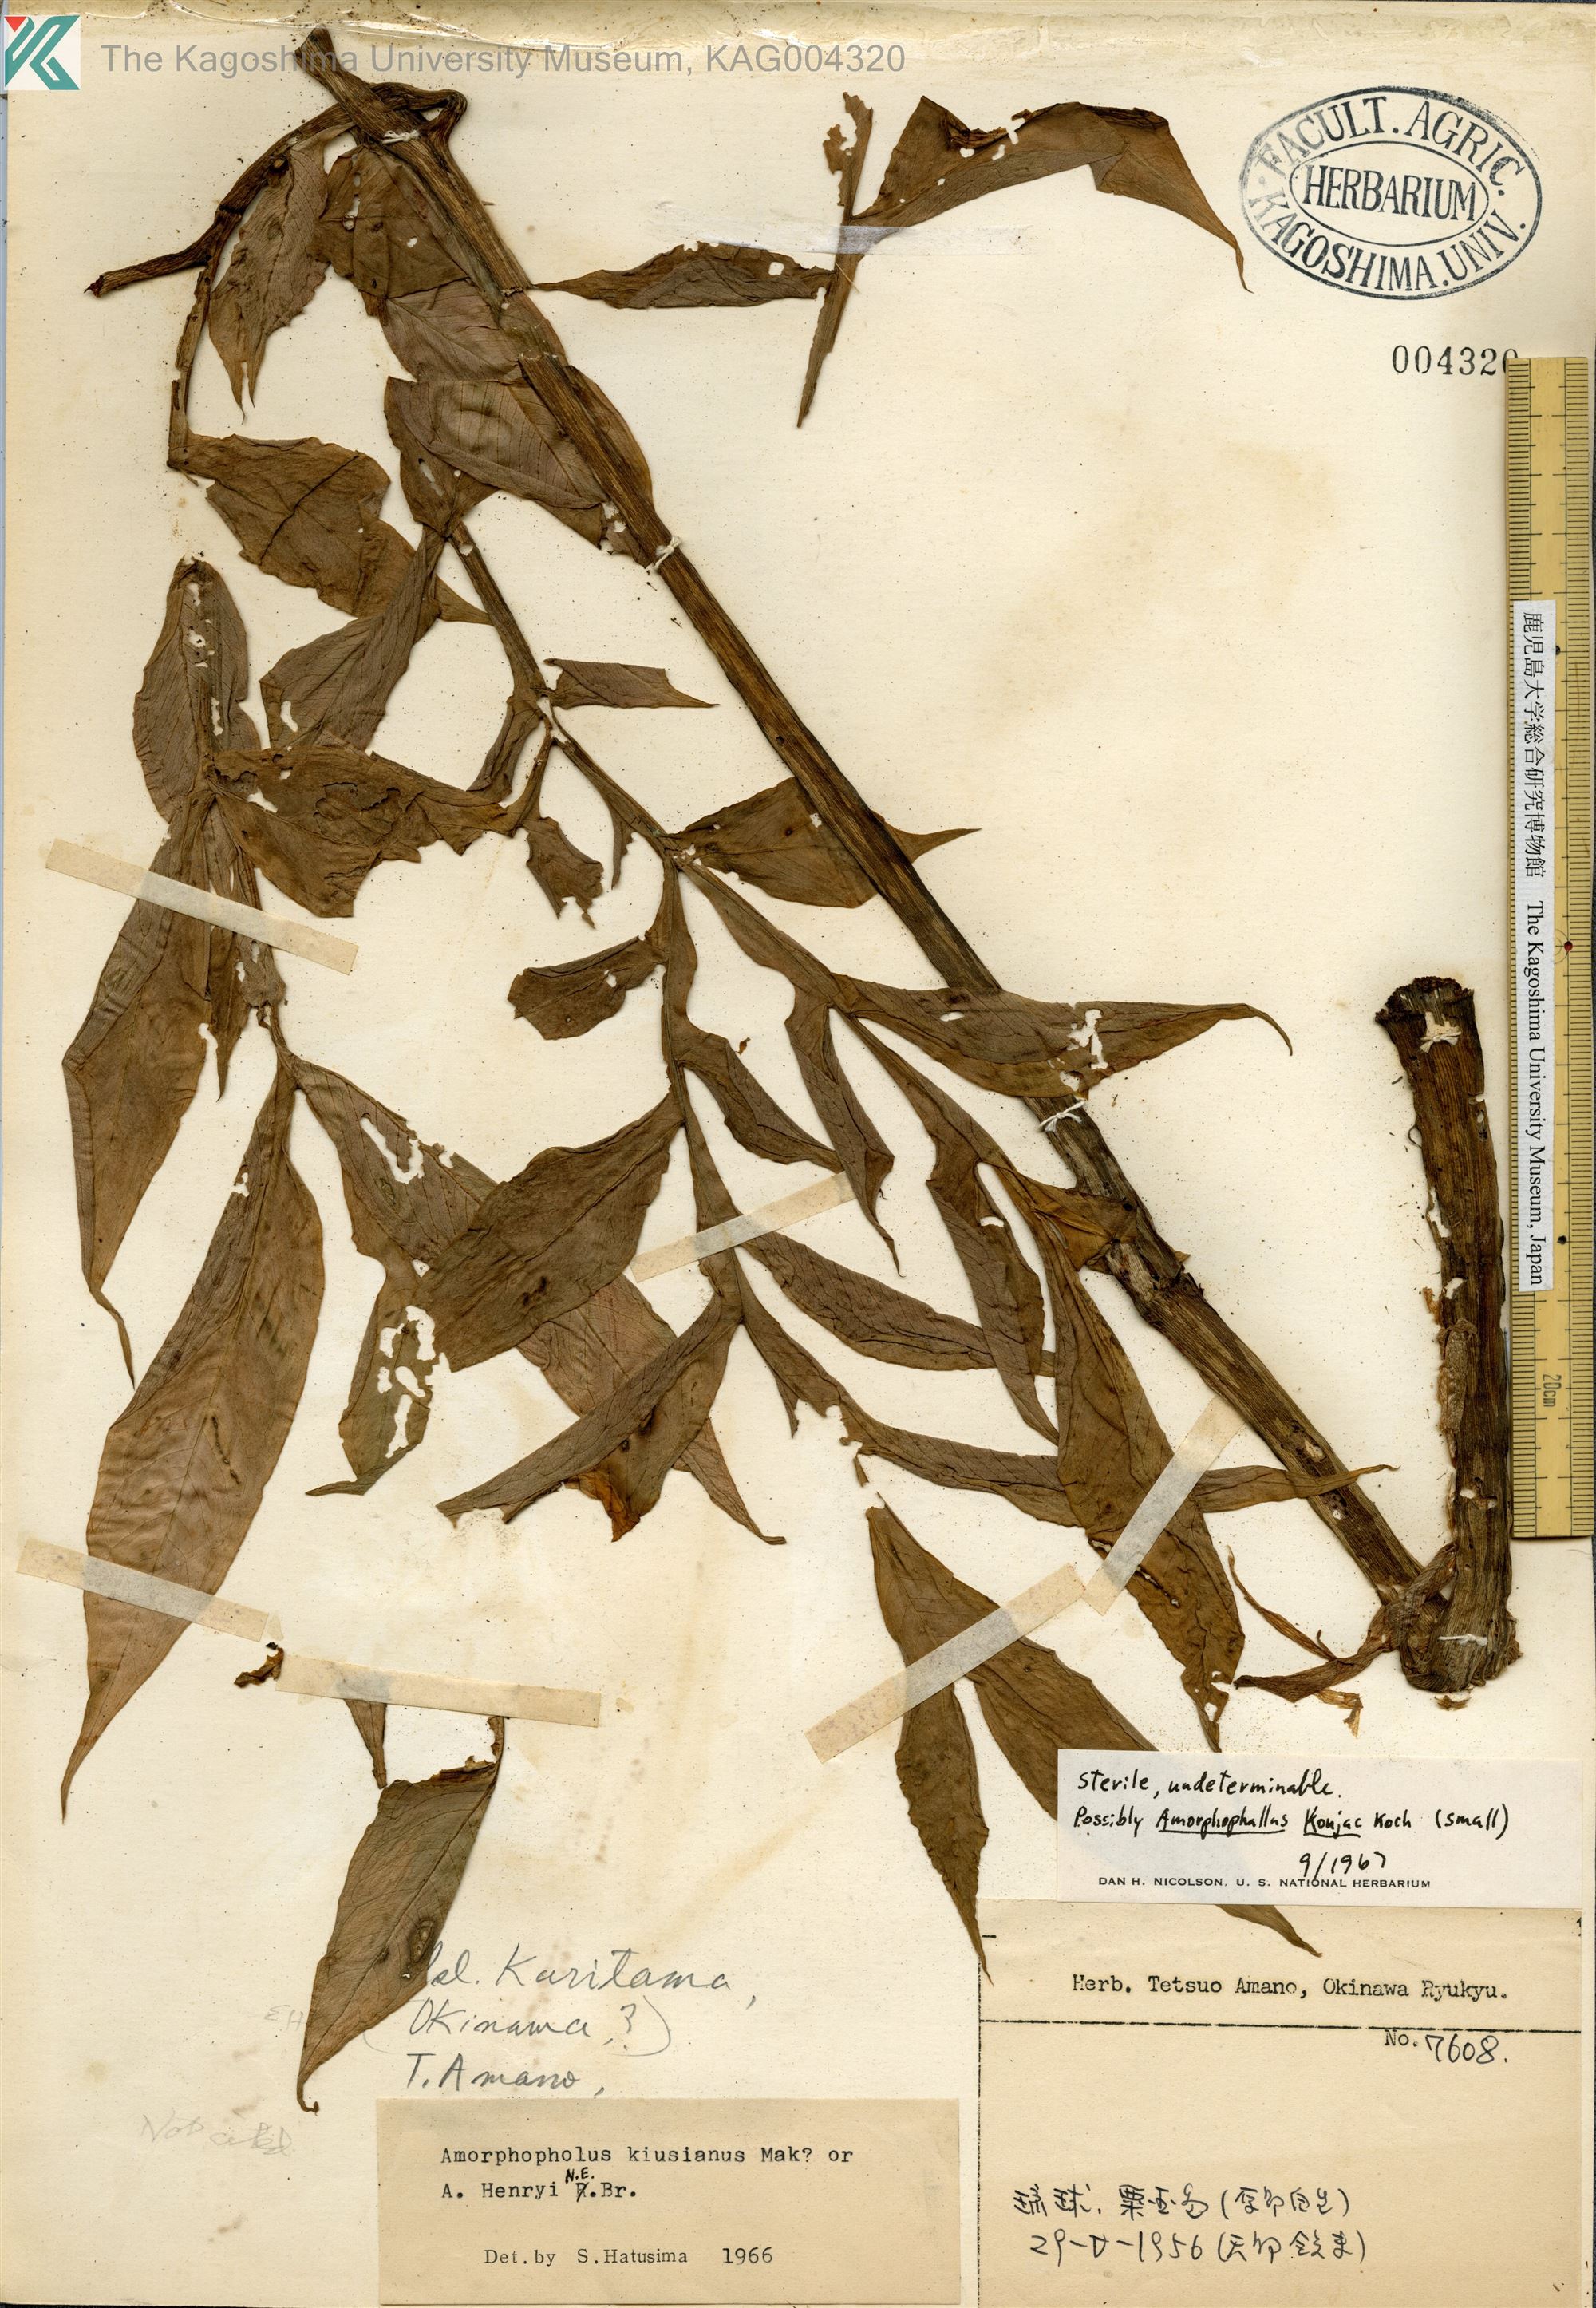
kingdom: Plantae
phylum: Tracheophyta
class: Liliopsida
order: Alismatales
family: Araceae
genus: Amorphophallus
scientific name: Amorphophallus kiusianus
